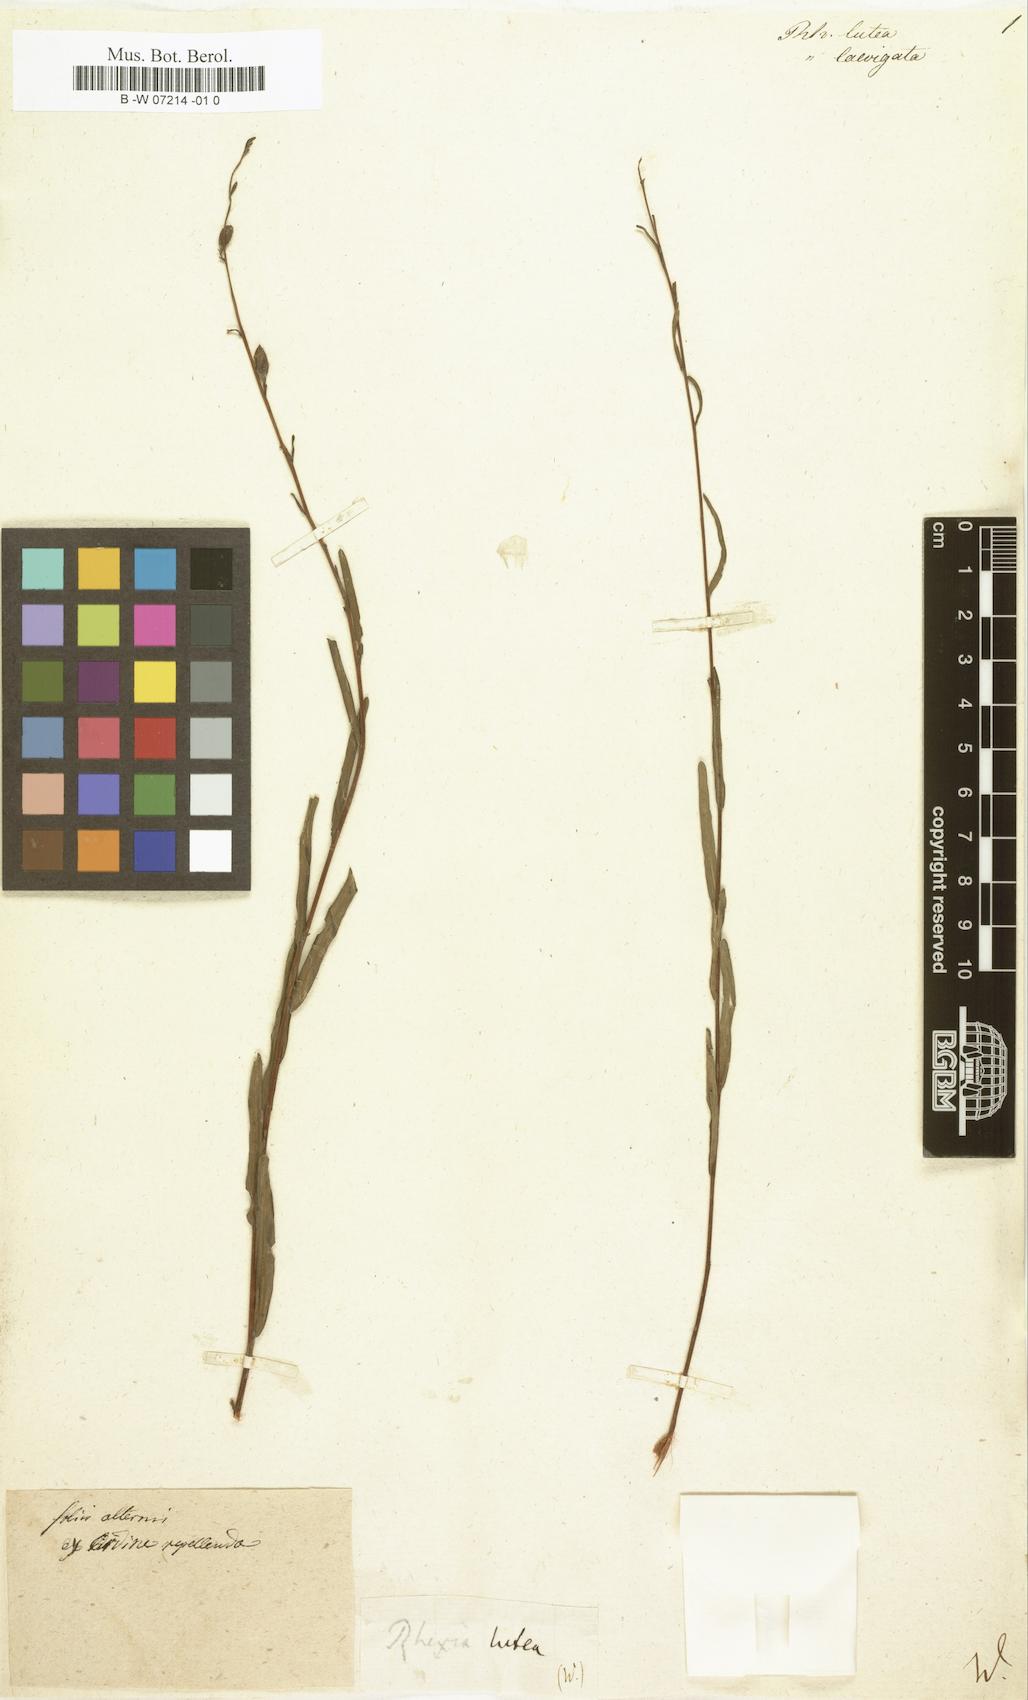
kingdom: Plantae
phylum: Tracheophyta
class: Magnoliopsida
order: Myrtales
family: Melastomataceae
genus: Rhexia
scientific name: Rhexia lutea
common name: Golden meadow-beauty
